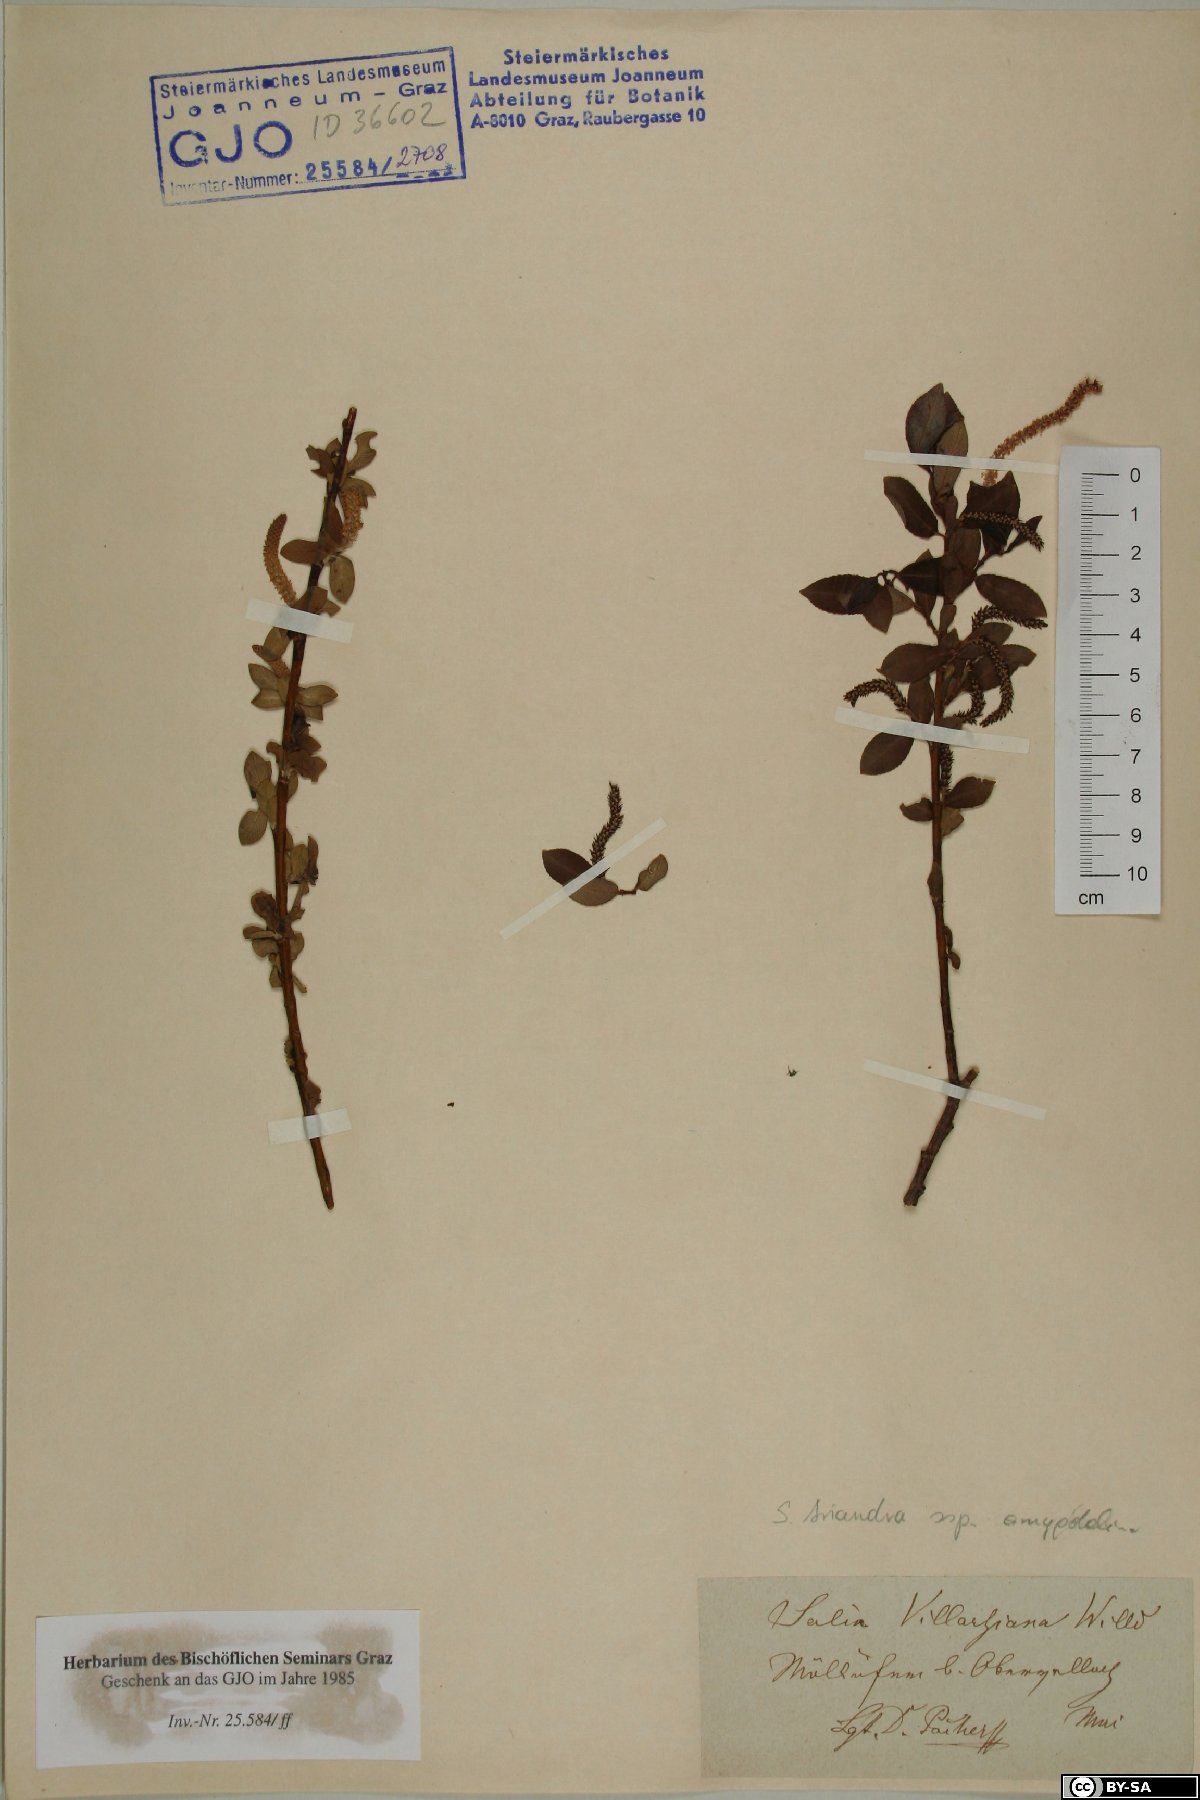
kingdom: Plantae
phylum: Tracheophyta
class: Magnoliopsida
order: Malpighiales
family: Salicaceae
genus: Salix
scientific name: Salix triandra
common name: Almond willow
